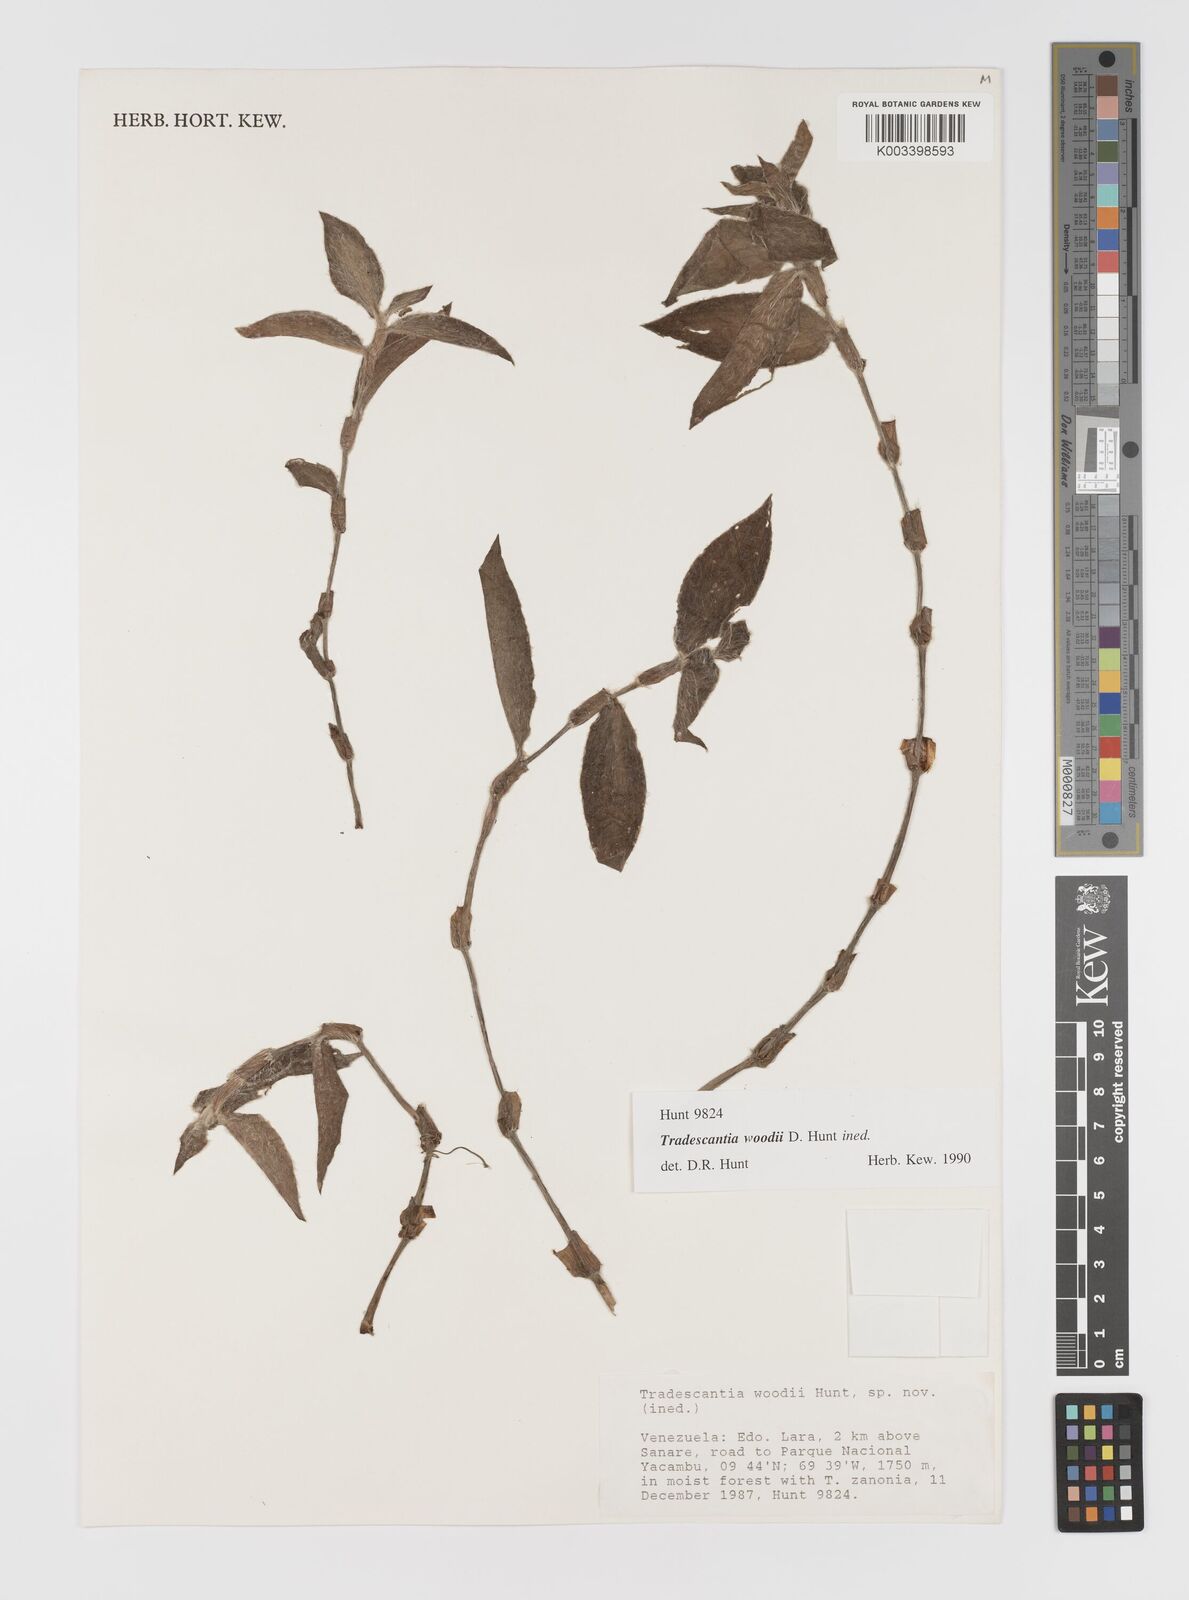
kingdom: Plantae
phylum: Tracheophyta
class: Liliopsida
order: Commelinales
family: Commelinaceae
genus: Tradescantia
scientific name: Tradescantia
